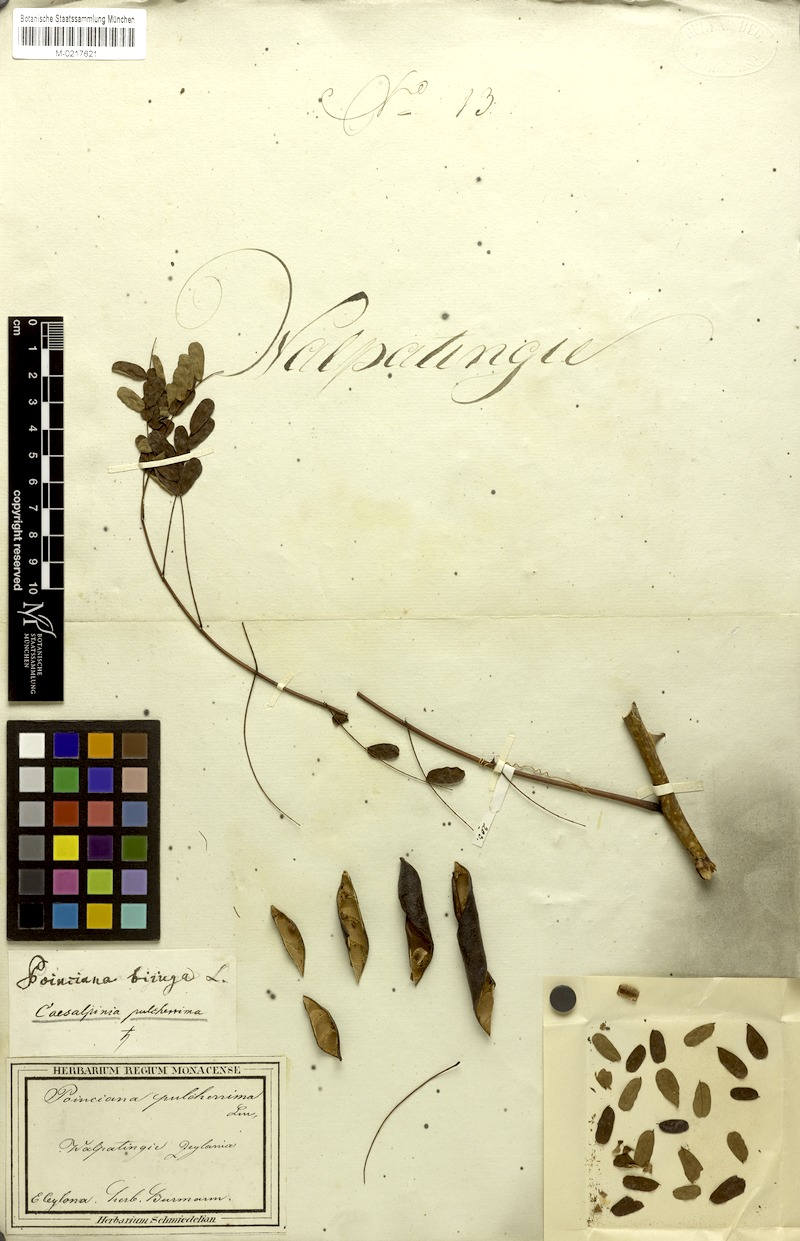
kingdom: Plantae
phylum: Tracheophyta
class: Magnoliopsida
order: Fabales
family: Fabaceae
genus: Caesalpinia
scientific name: Caesalpinia pulcherrima
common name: Pride-of-barbados
